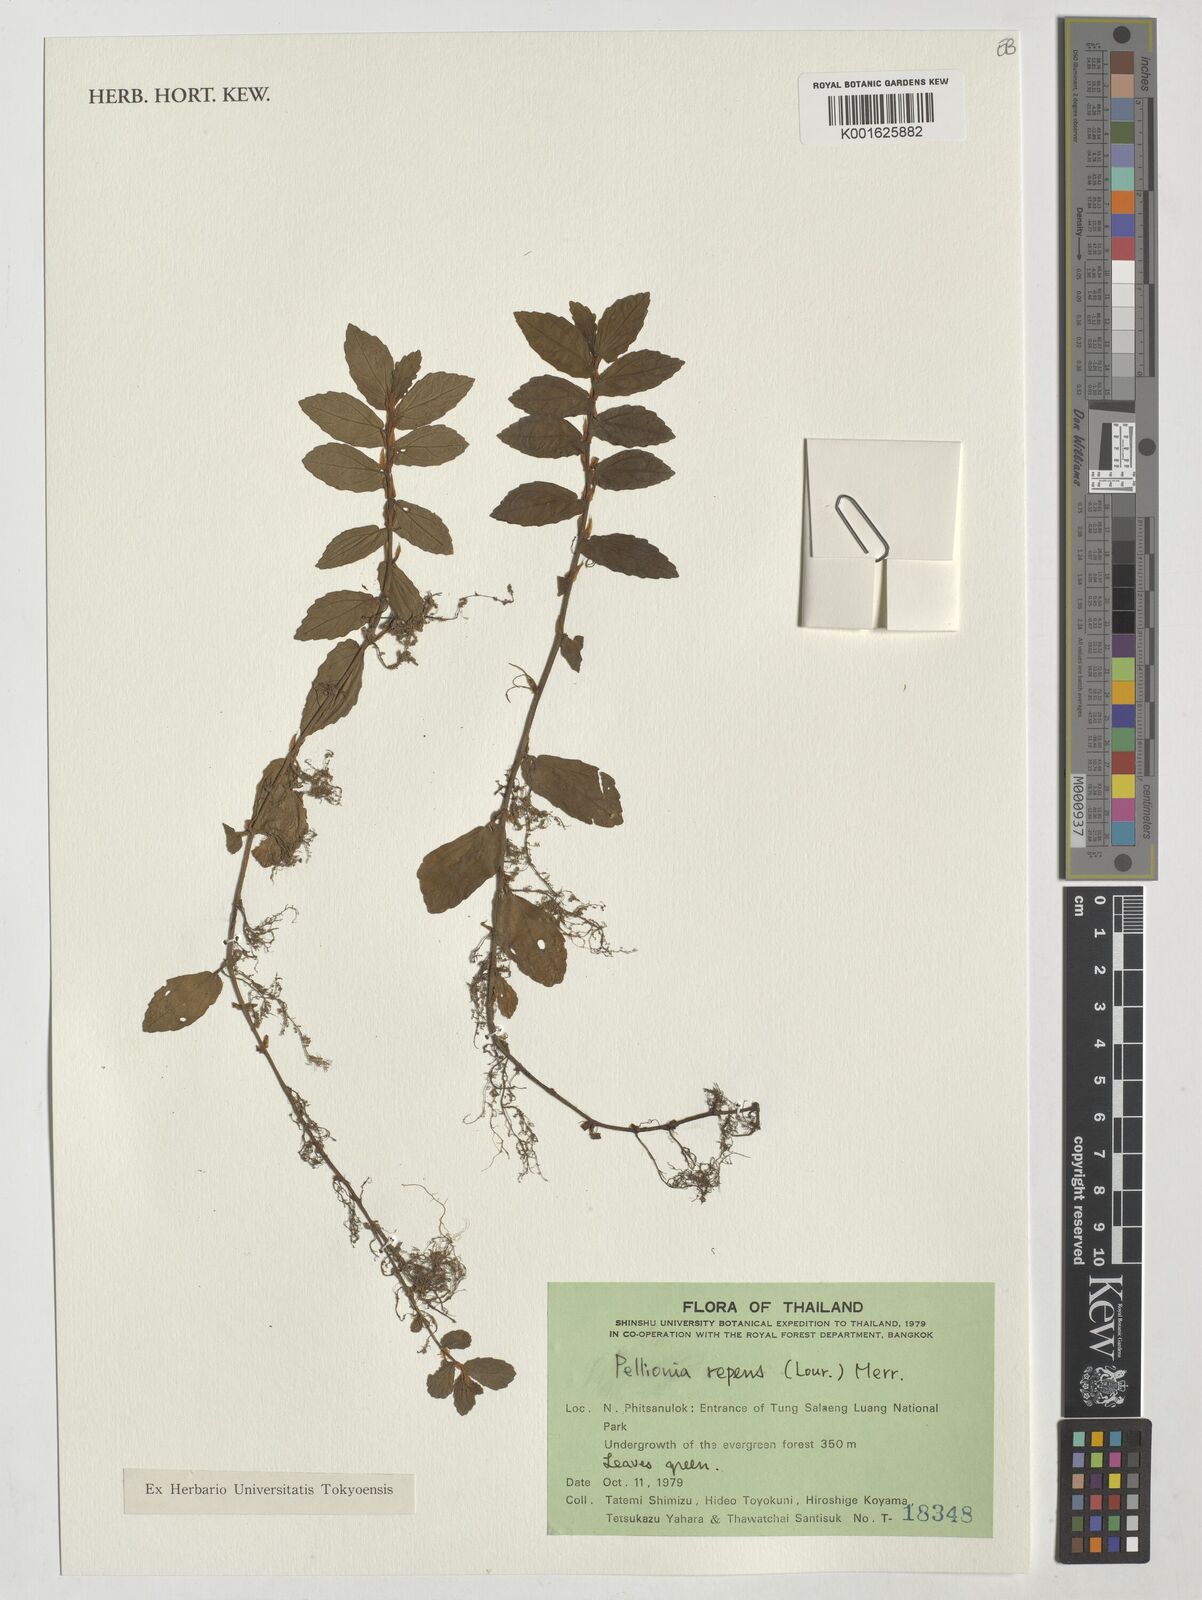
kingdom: Plantae
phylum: Tracheophyta
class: Magnoliopsida
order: Rosales
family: Urticaceae
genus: Procris
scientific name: Procris repens
